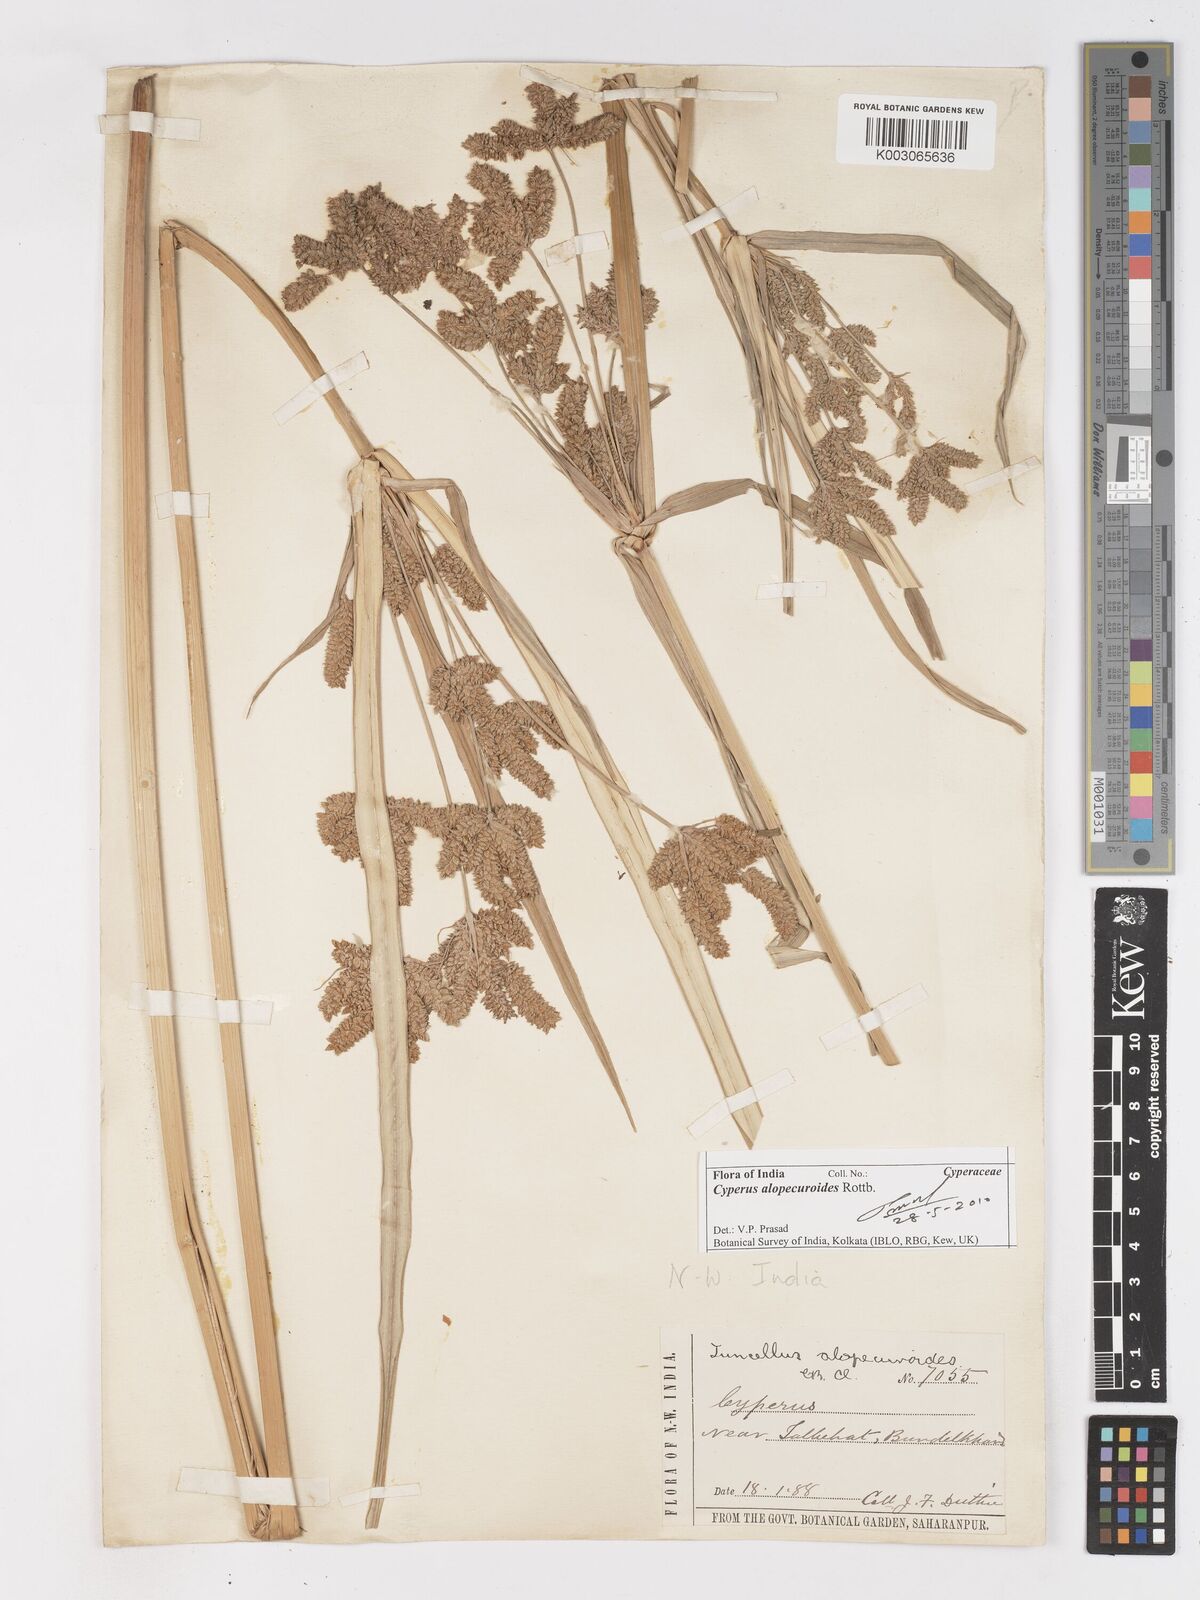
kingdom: Plantae
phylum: Tracheophyta
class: Liliopsida
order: Poales
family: Cyperaceae
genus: Cyperus
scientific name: Cyperus alopecuroides
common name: Foxtail flatsedge
